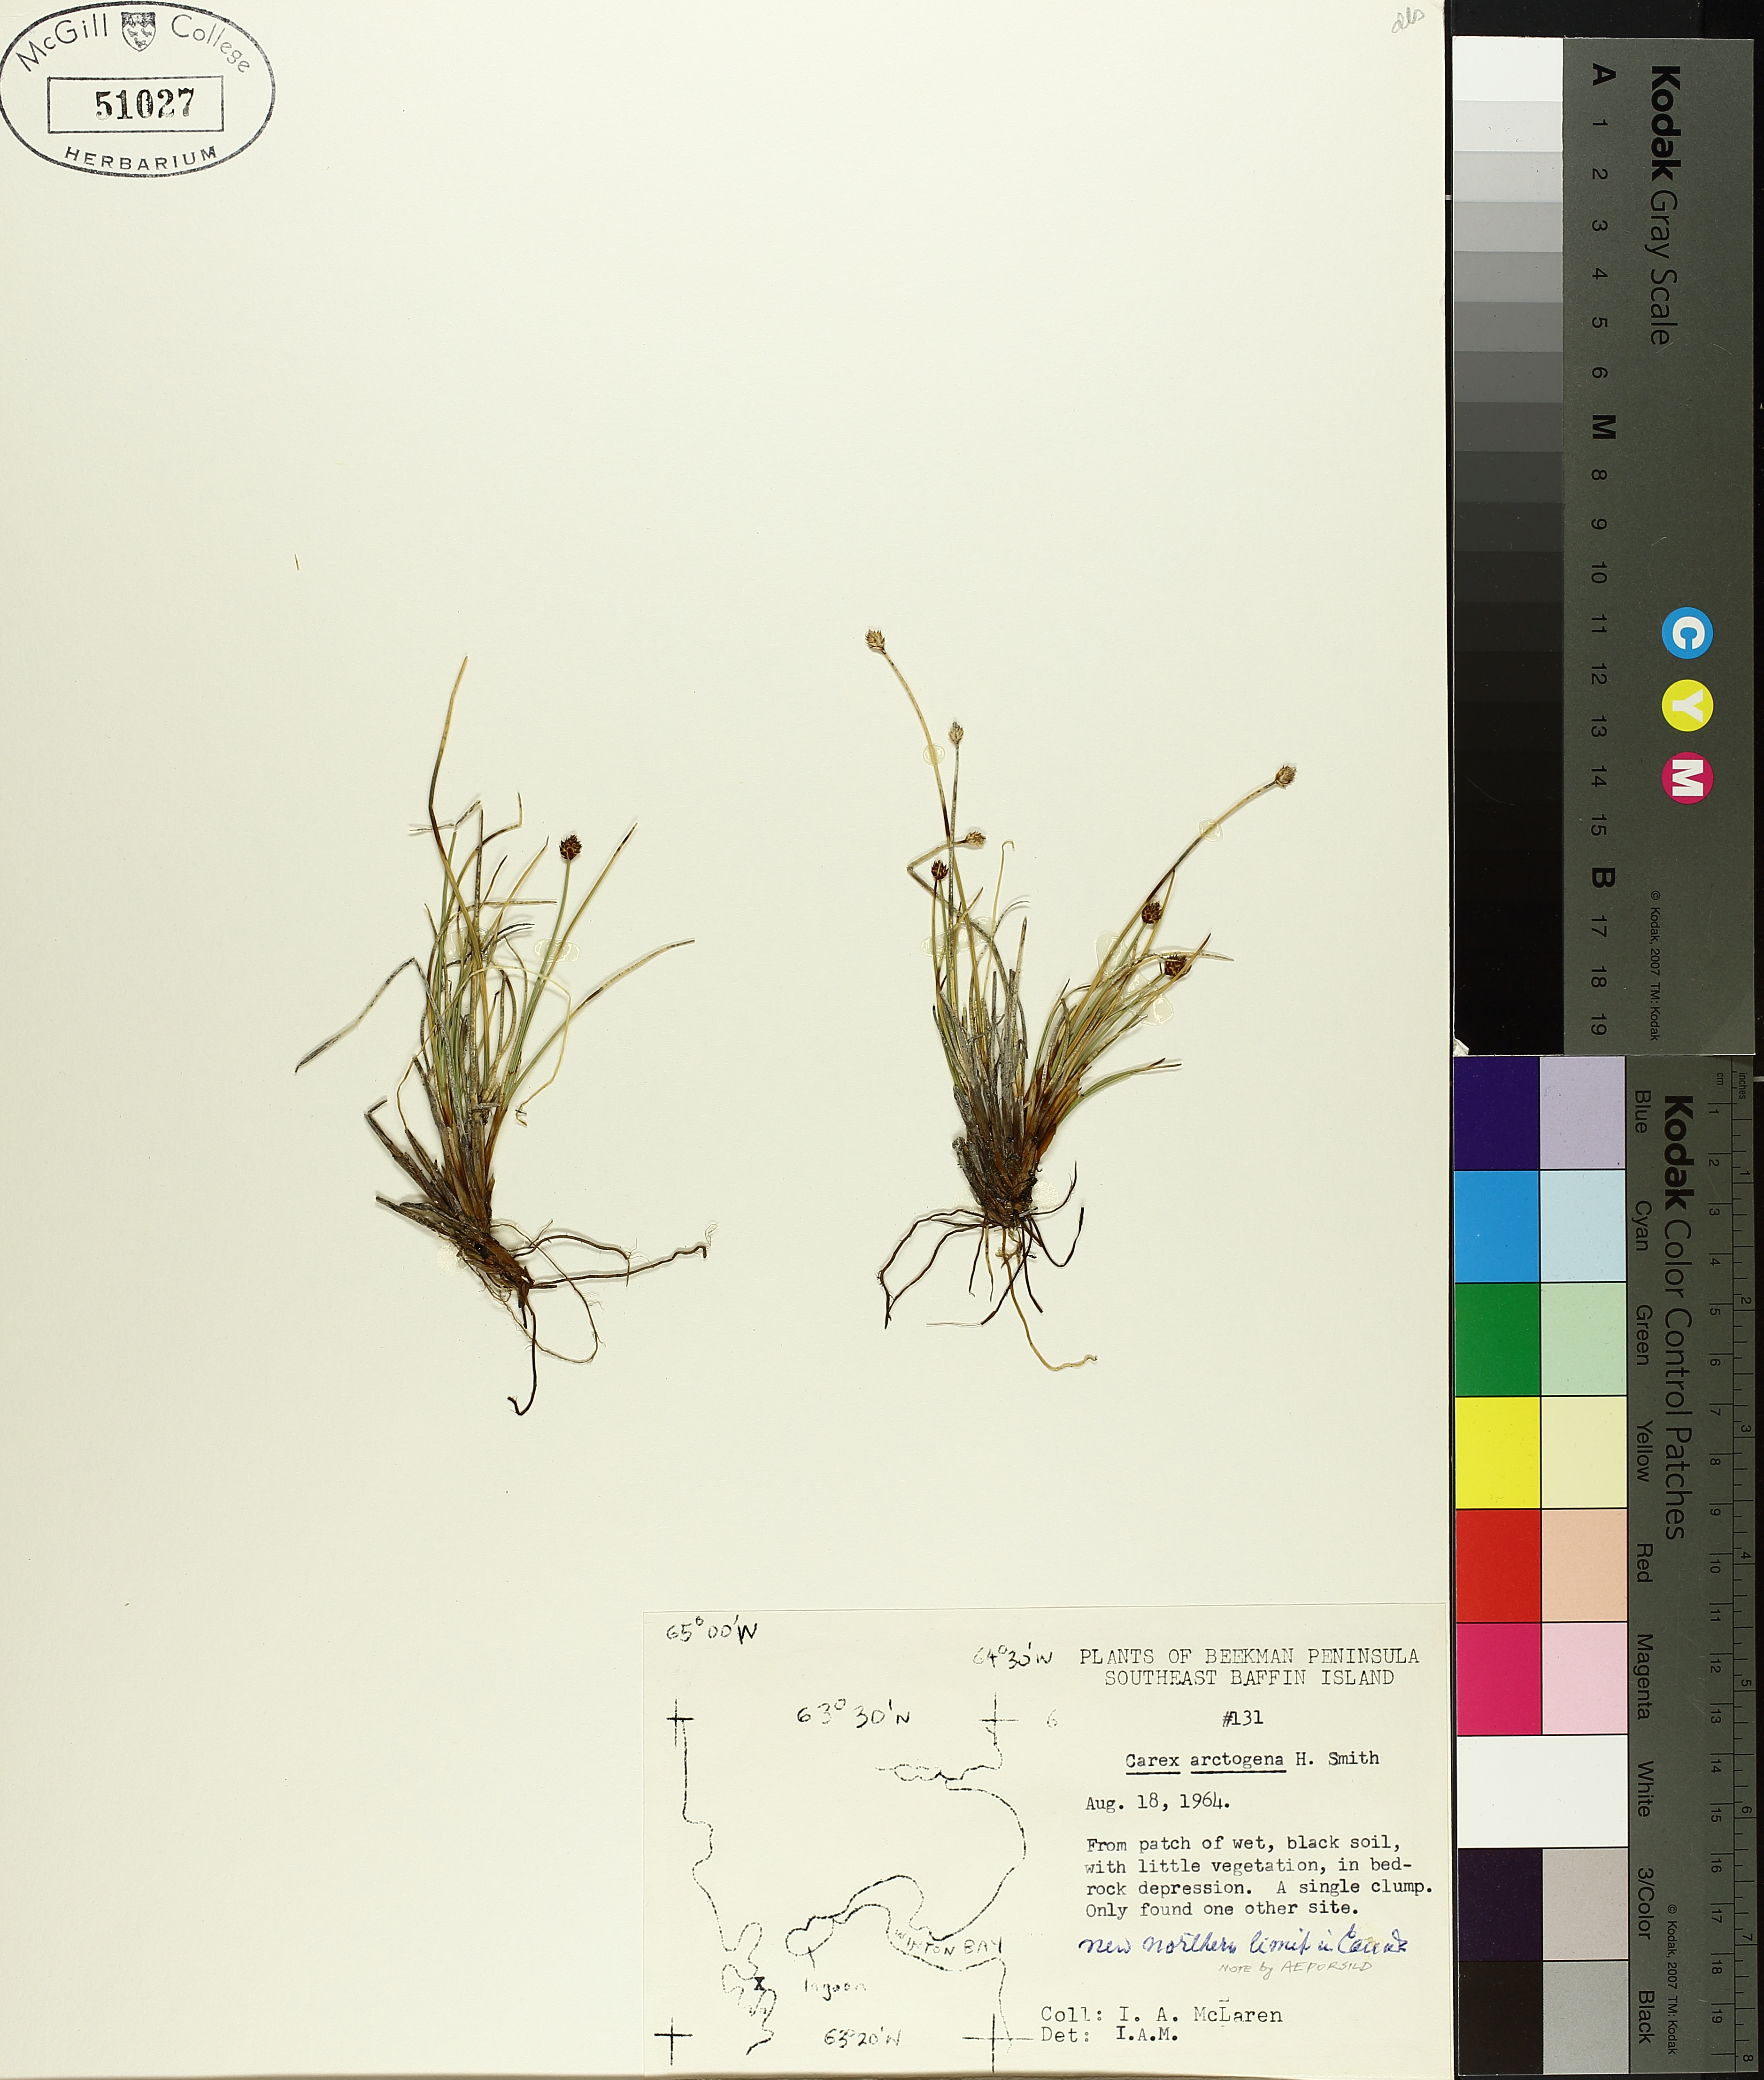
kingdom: Plantae
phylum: Tracheophyta
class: Liliopsida
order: Poales
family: Cyperaceae
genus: Carex
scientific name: Carex arctogena
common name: Black sedge
